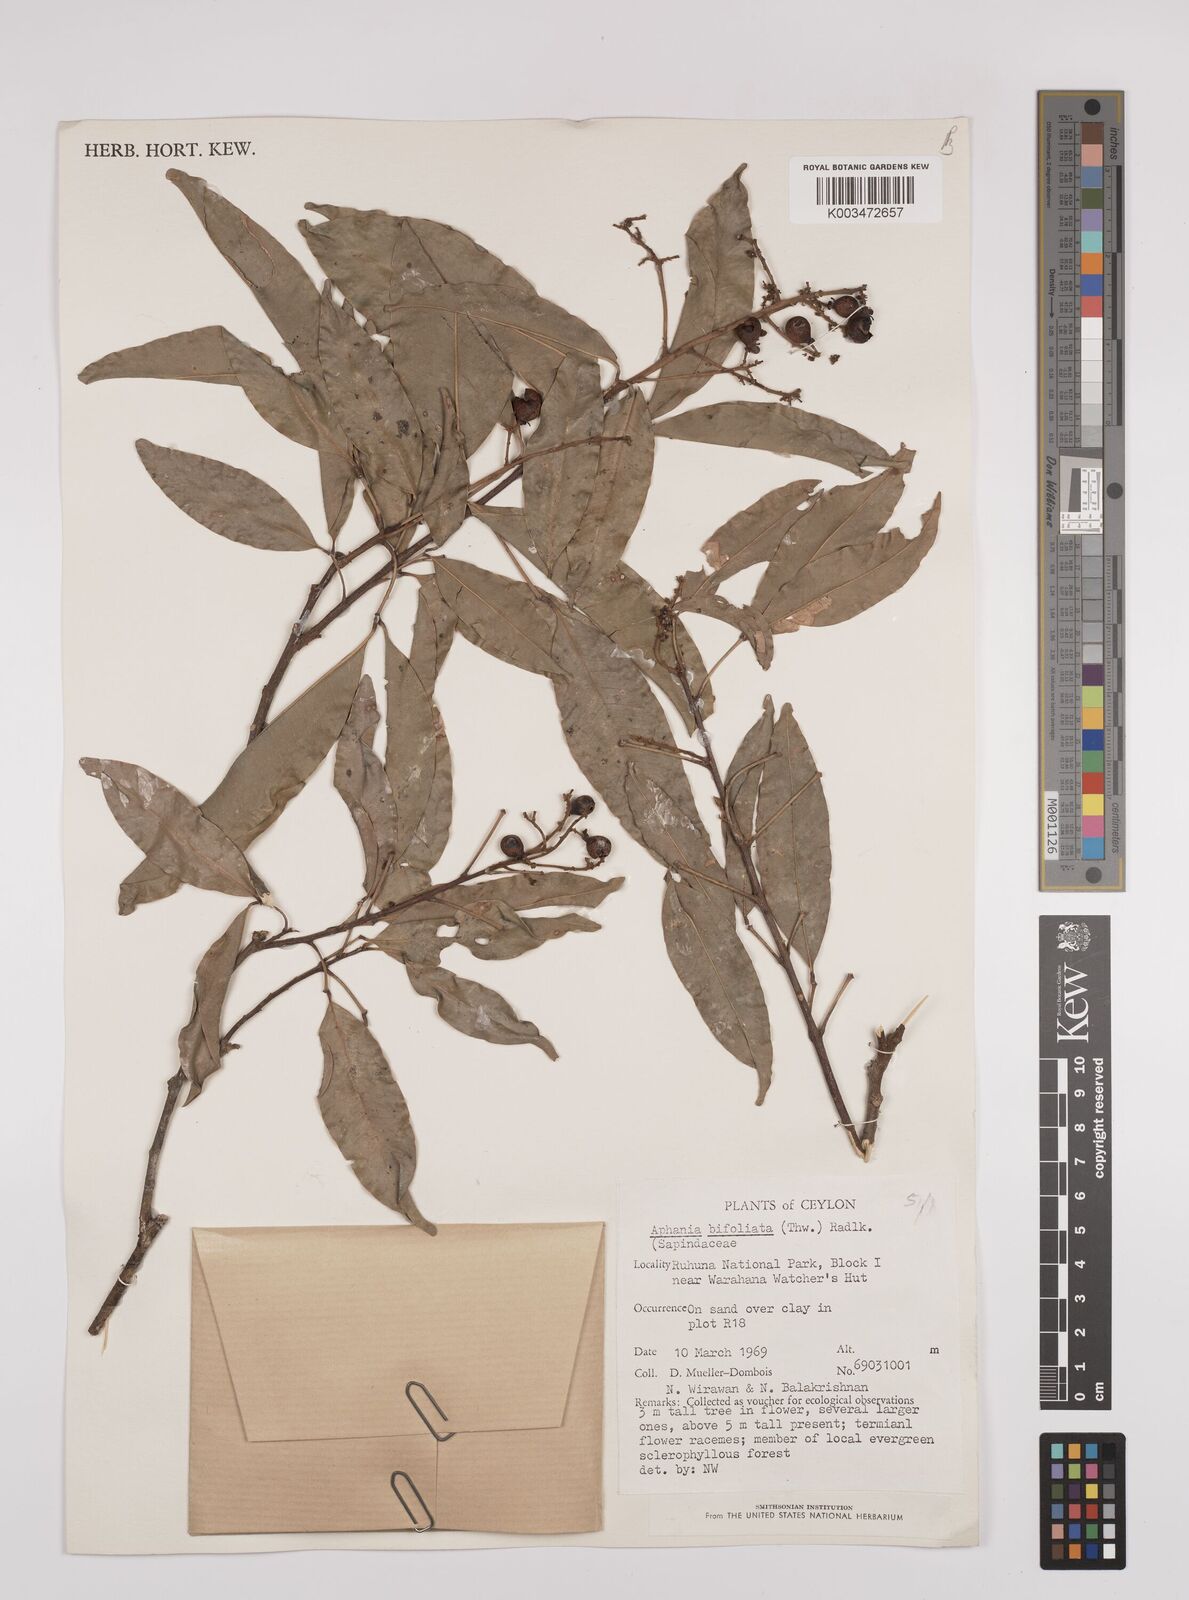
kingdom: Plantae
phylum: Tracheophyta
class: Magnoliopsida
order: Sapindales
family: Sapindaceae
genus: Lepisanthes
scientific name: Lepisanthes senegalensis
